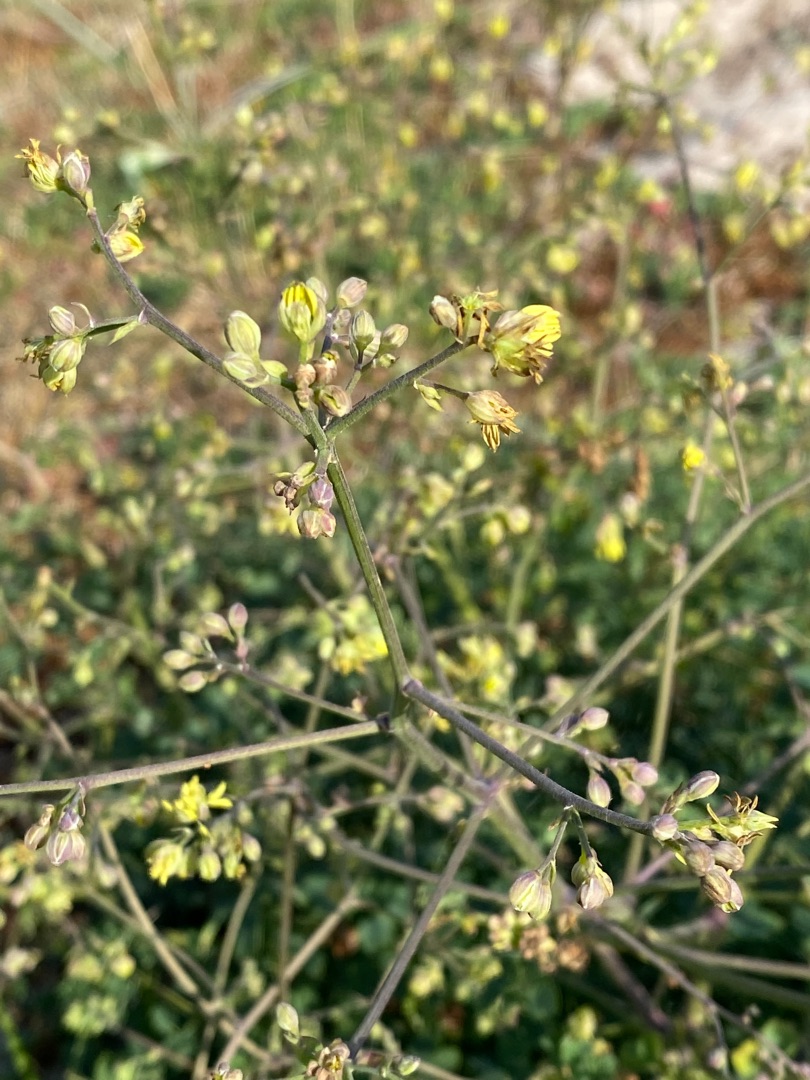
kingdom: Plantae
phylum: Tracheophyta
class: Magnoliopsida
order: Ranunculales
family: Ranunculaceae
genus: Thalictrum
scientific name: Thalictrum minus
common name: Liden frøstjerne
